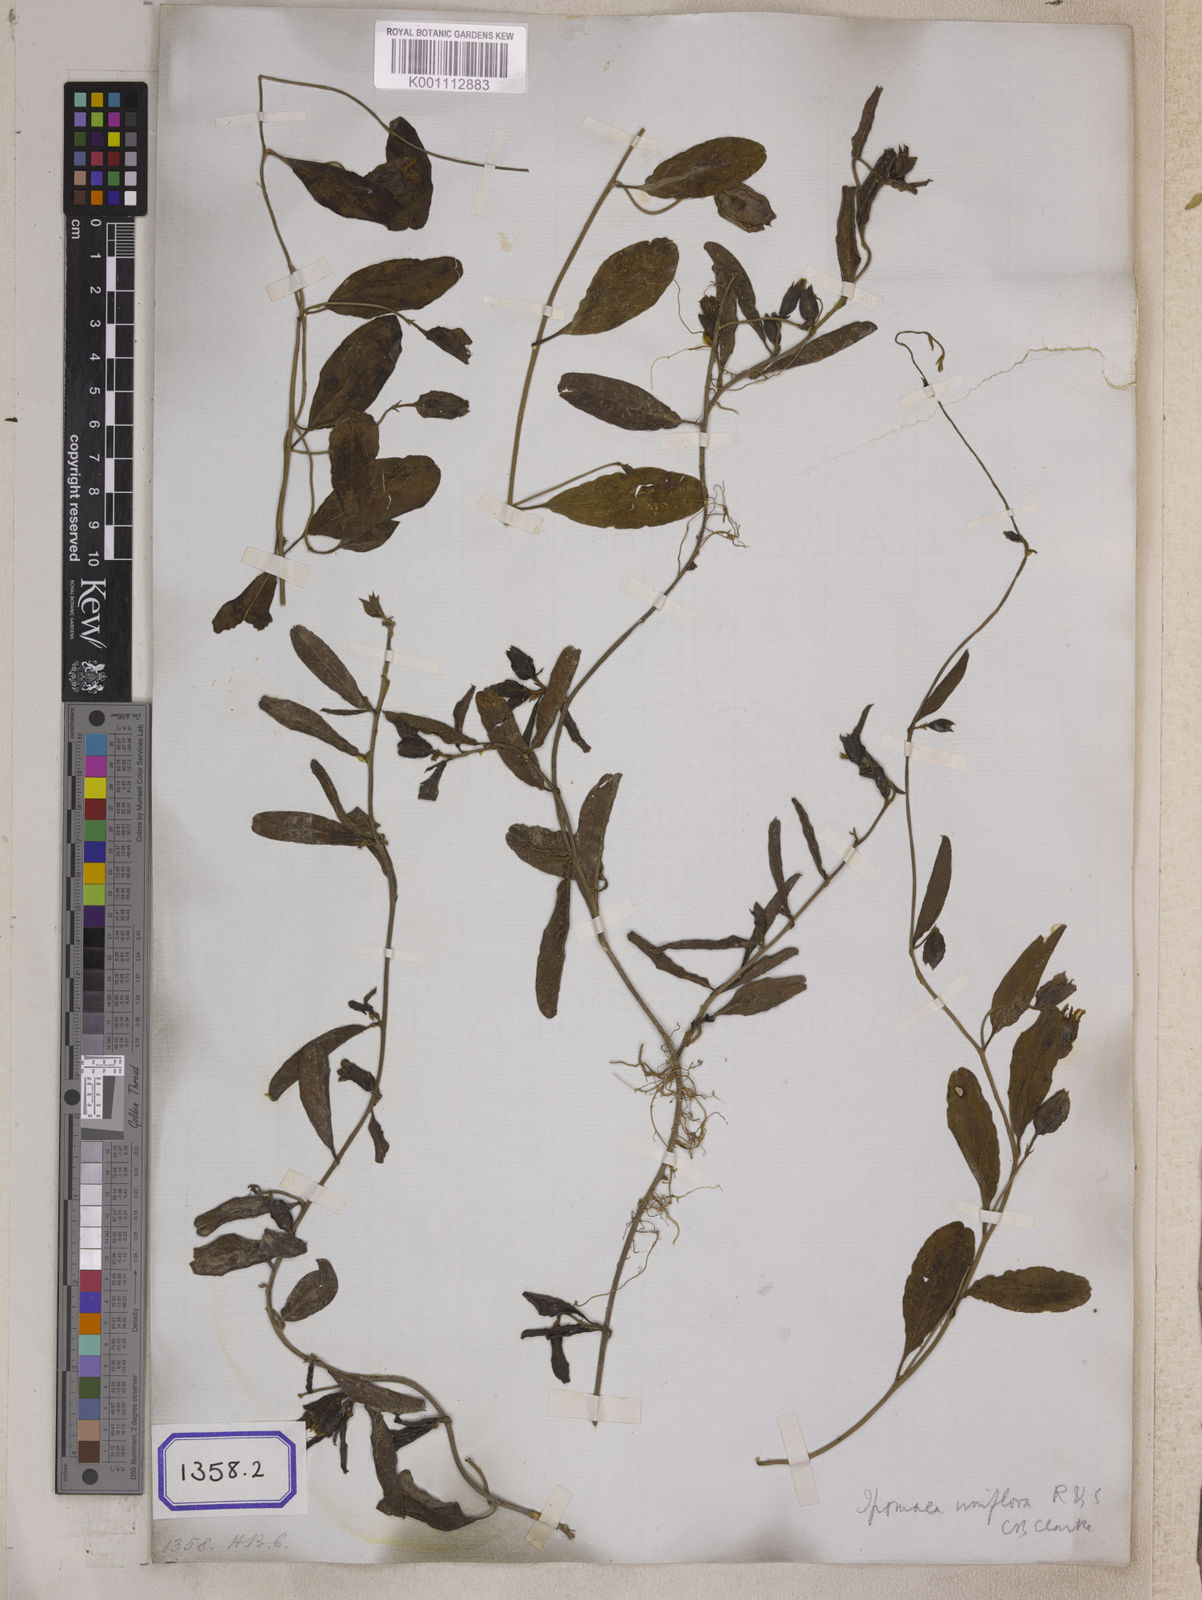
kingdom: Plantae
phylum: Tracheophyta
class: Magnoliopsida
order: Solanales
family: Convolvulaceae
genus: Aniseia
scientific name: Aniseia martinicensis
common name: Kulayadambu
